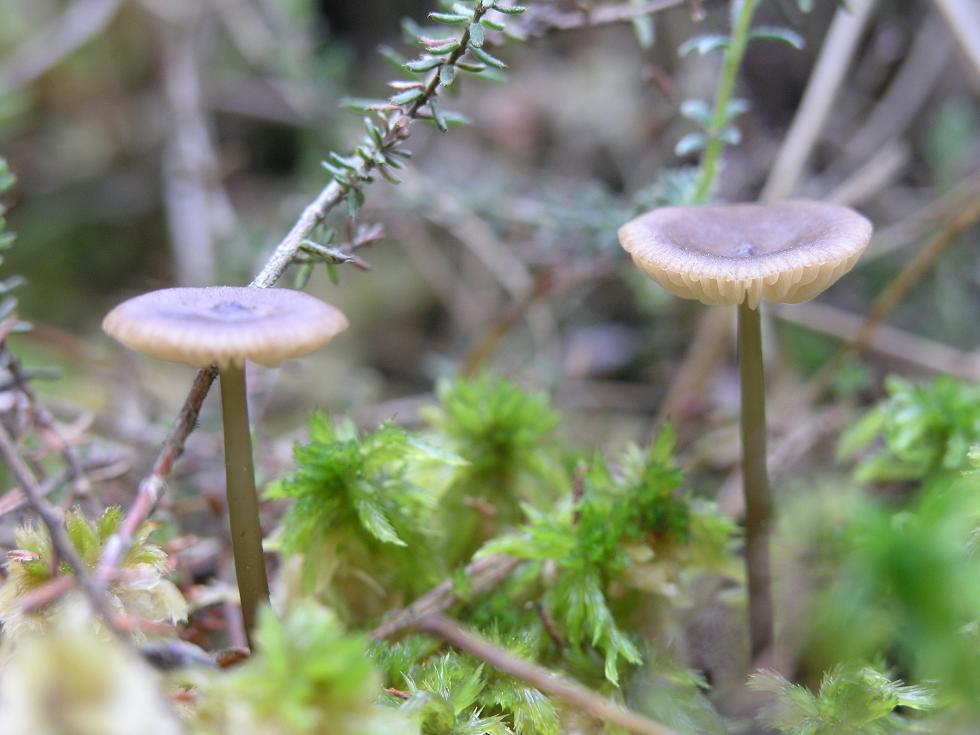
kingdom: Fungi
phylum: Basidiomycota
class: Agaricomycetes
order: Agaricales
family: Lyophyllaceae
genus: Sphagnurus
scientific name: Sphagnurus paluster
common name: tørvemos-gråblad
